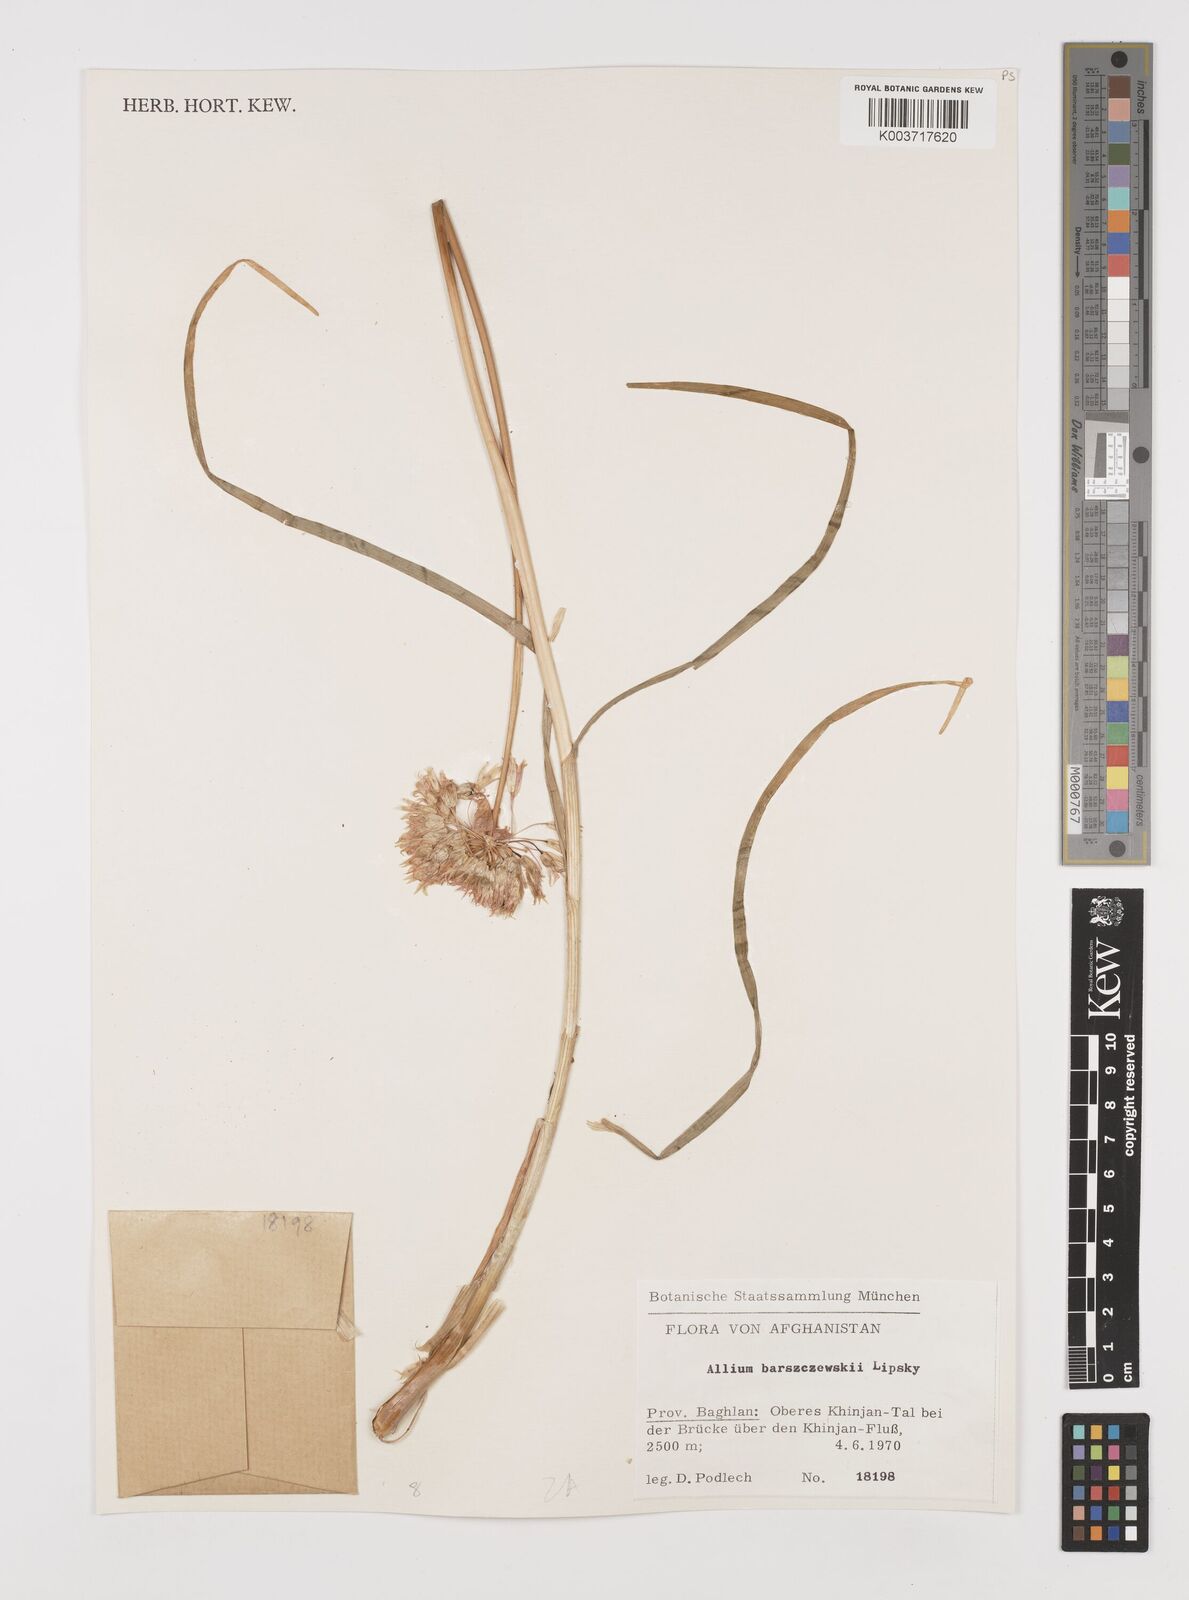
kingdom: Plantae
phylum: Tracheophyta
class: Liliopsida
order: Asparagales
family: Amaryllidaceae
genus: Allium
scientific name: Allium barsczewskii
